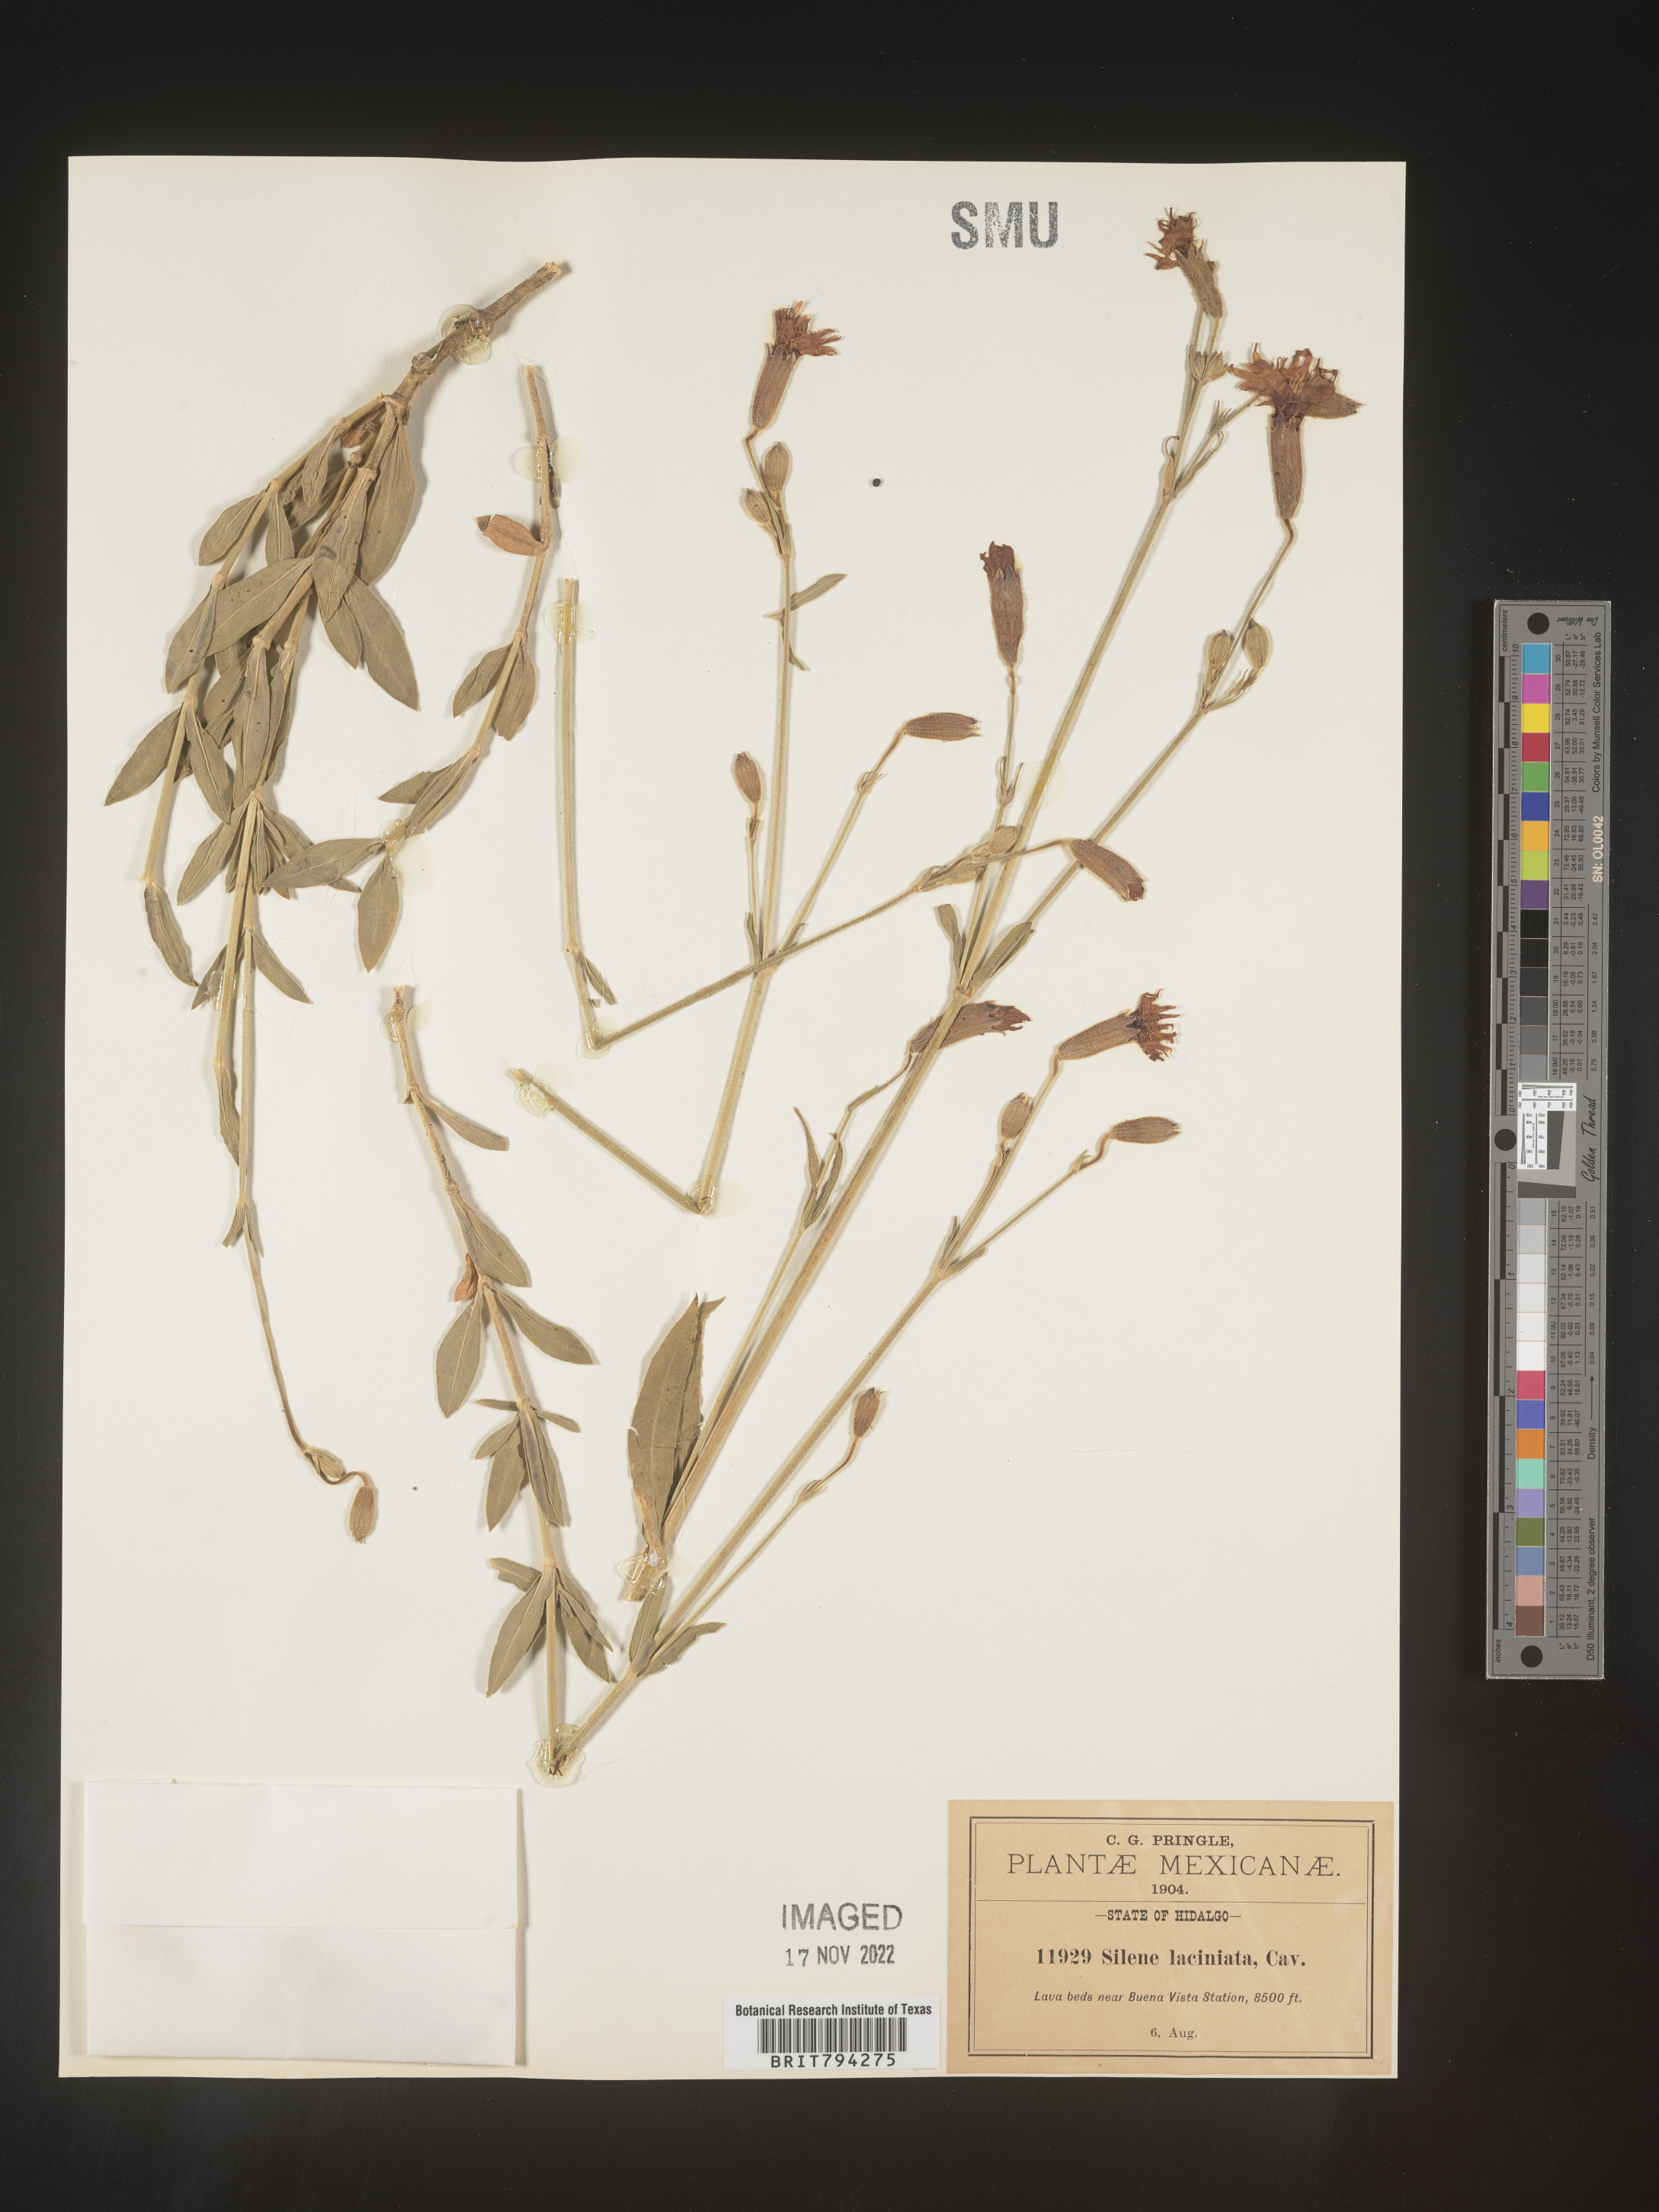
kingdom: Plantae
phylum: Tracheophyta
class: Magnoliopsida
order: Caryophyllales
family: Caryophyllaceae
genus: Silene
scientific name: Silene laciniata
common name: Indian-pink
